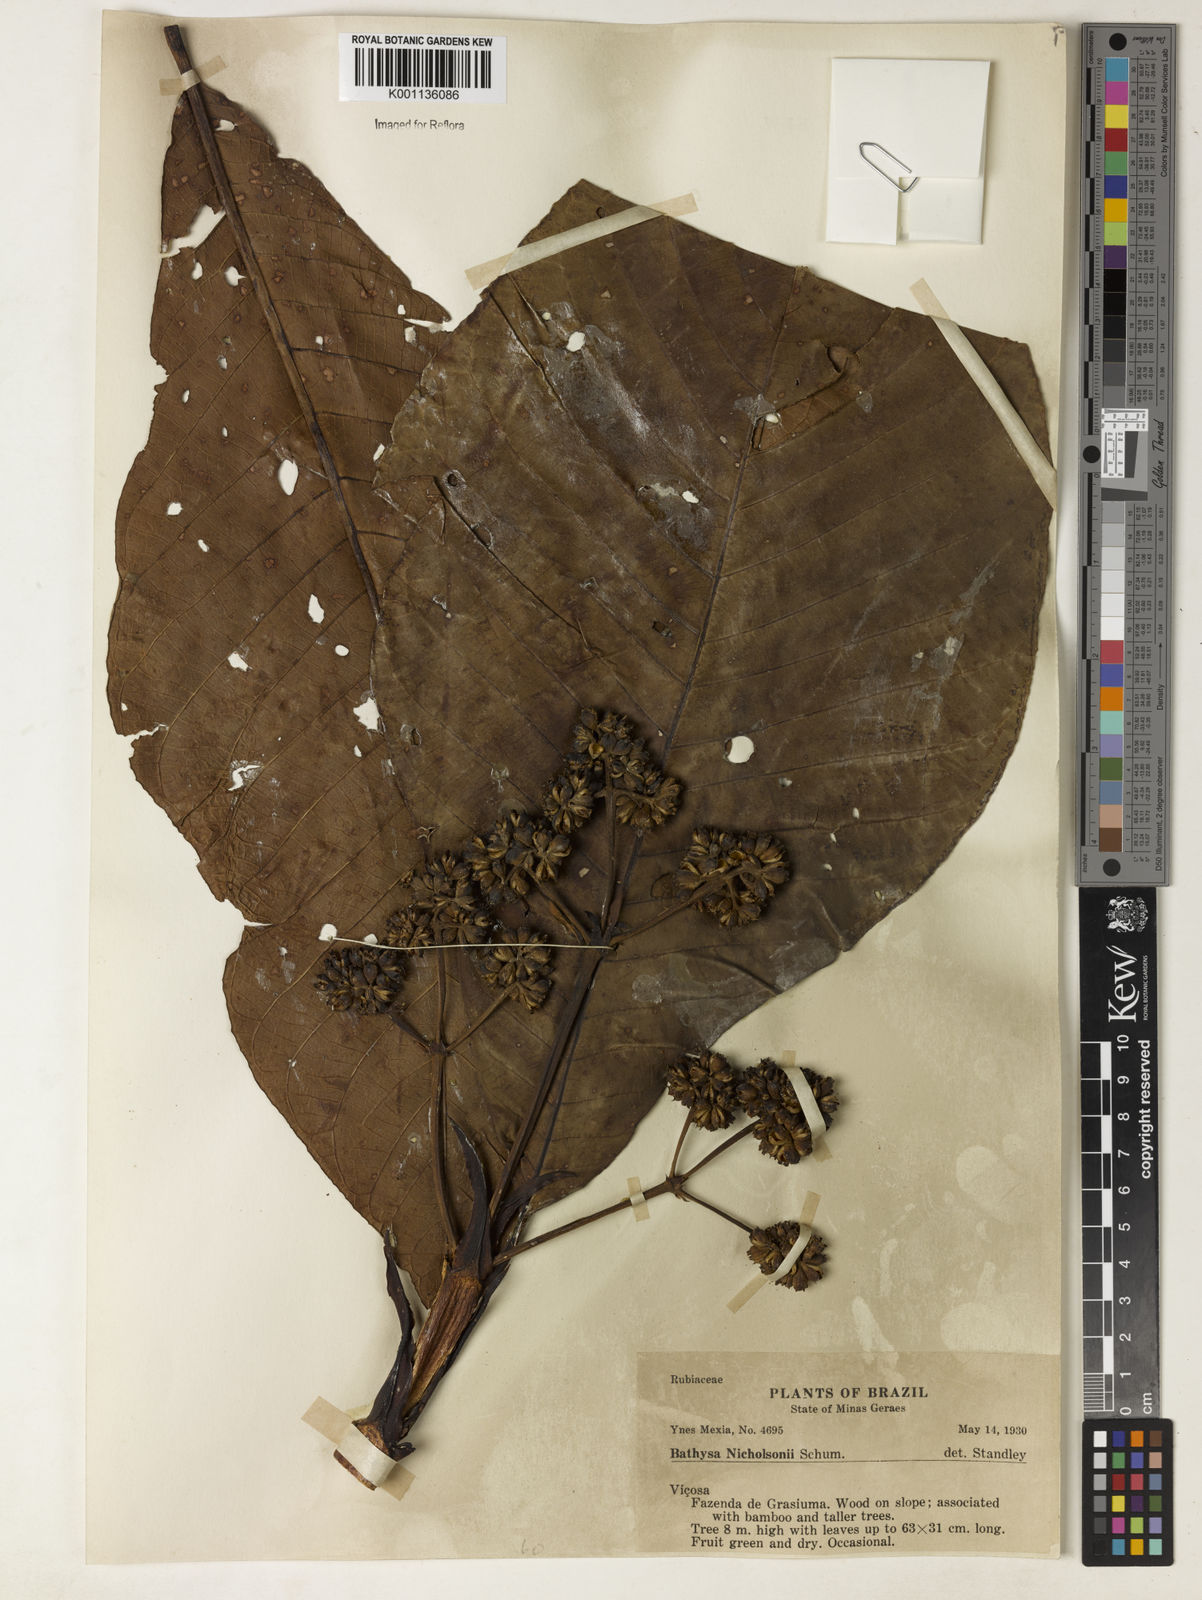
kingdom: Plantae
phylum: Tracheophyta
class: Magnoliopsida
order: Gentianales
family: Rubiaceae
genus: Bathysa
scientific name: Bathysa nicholsonii
